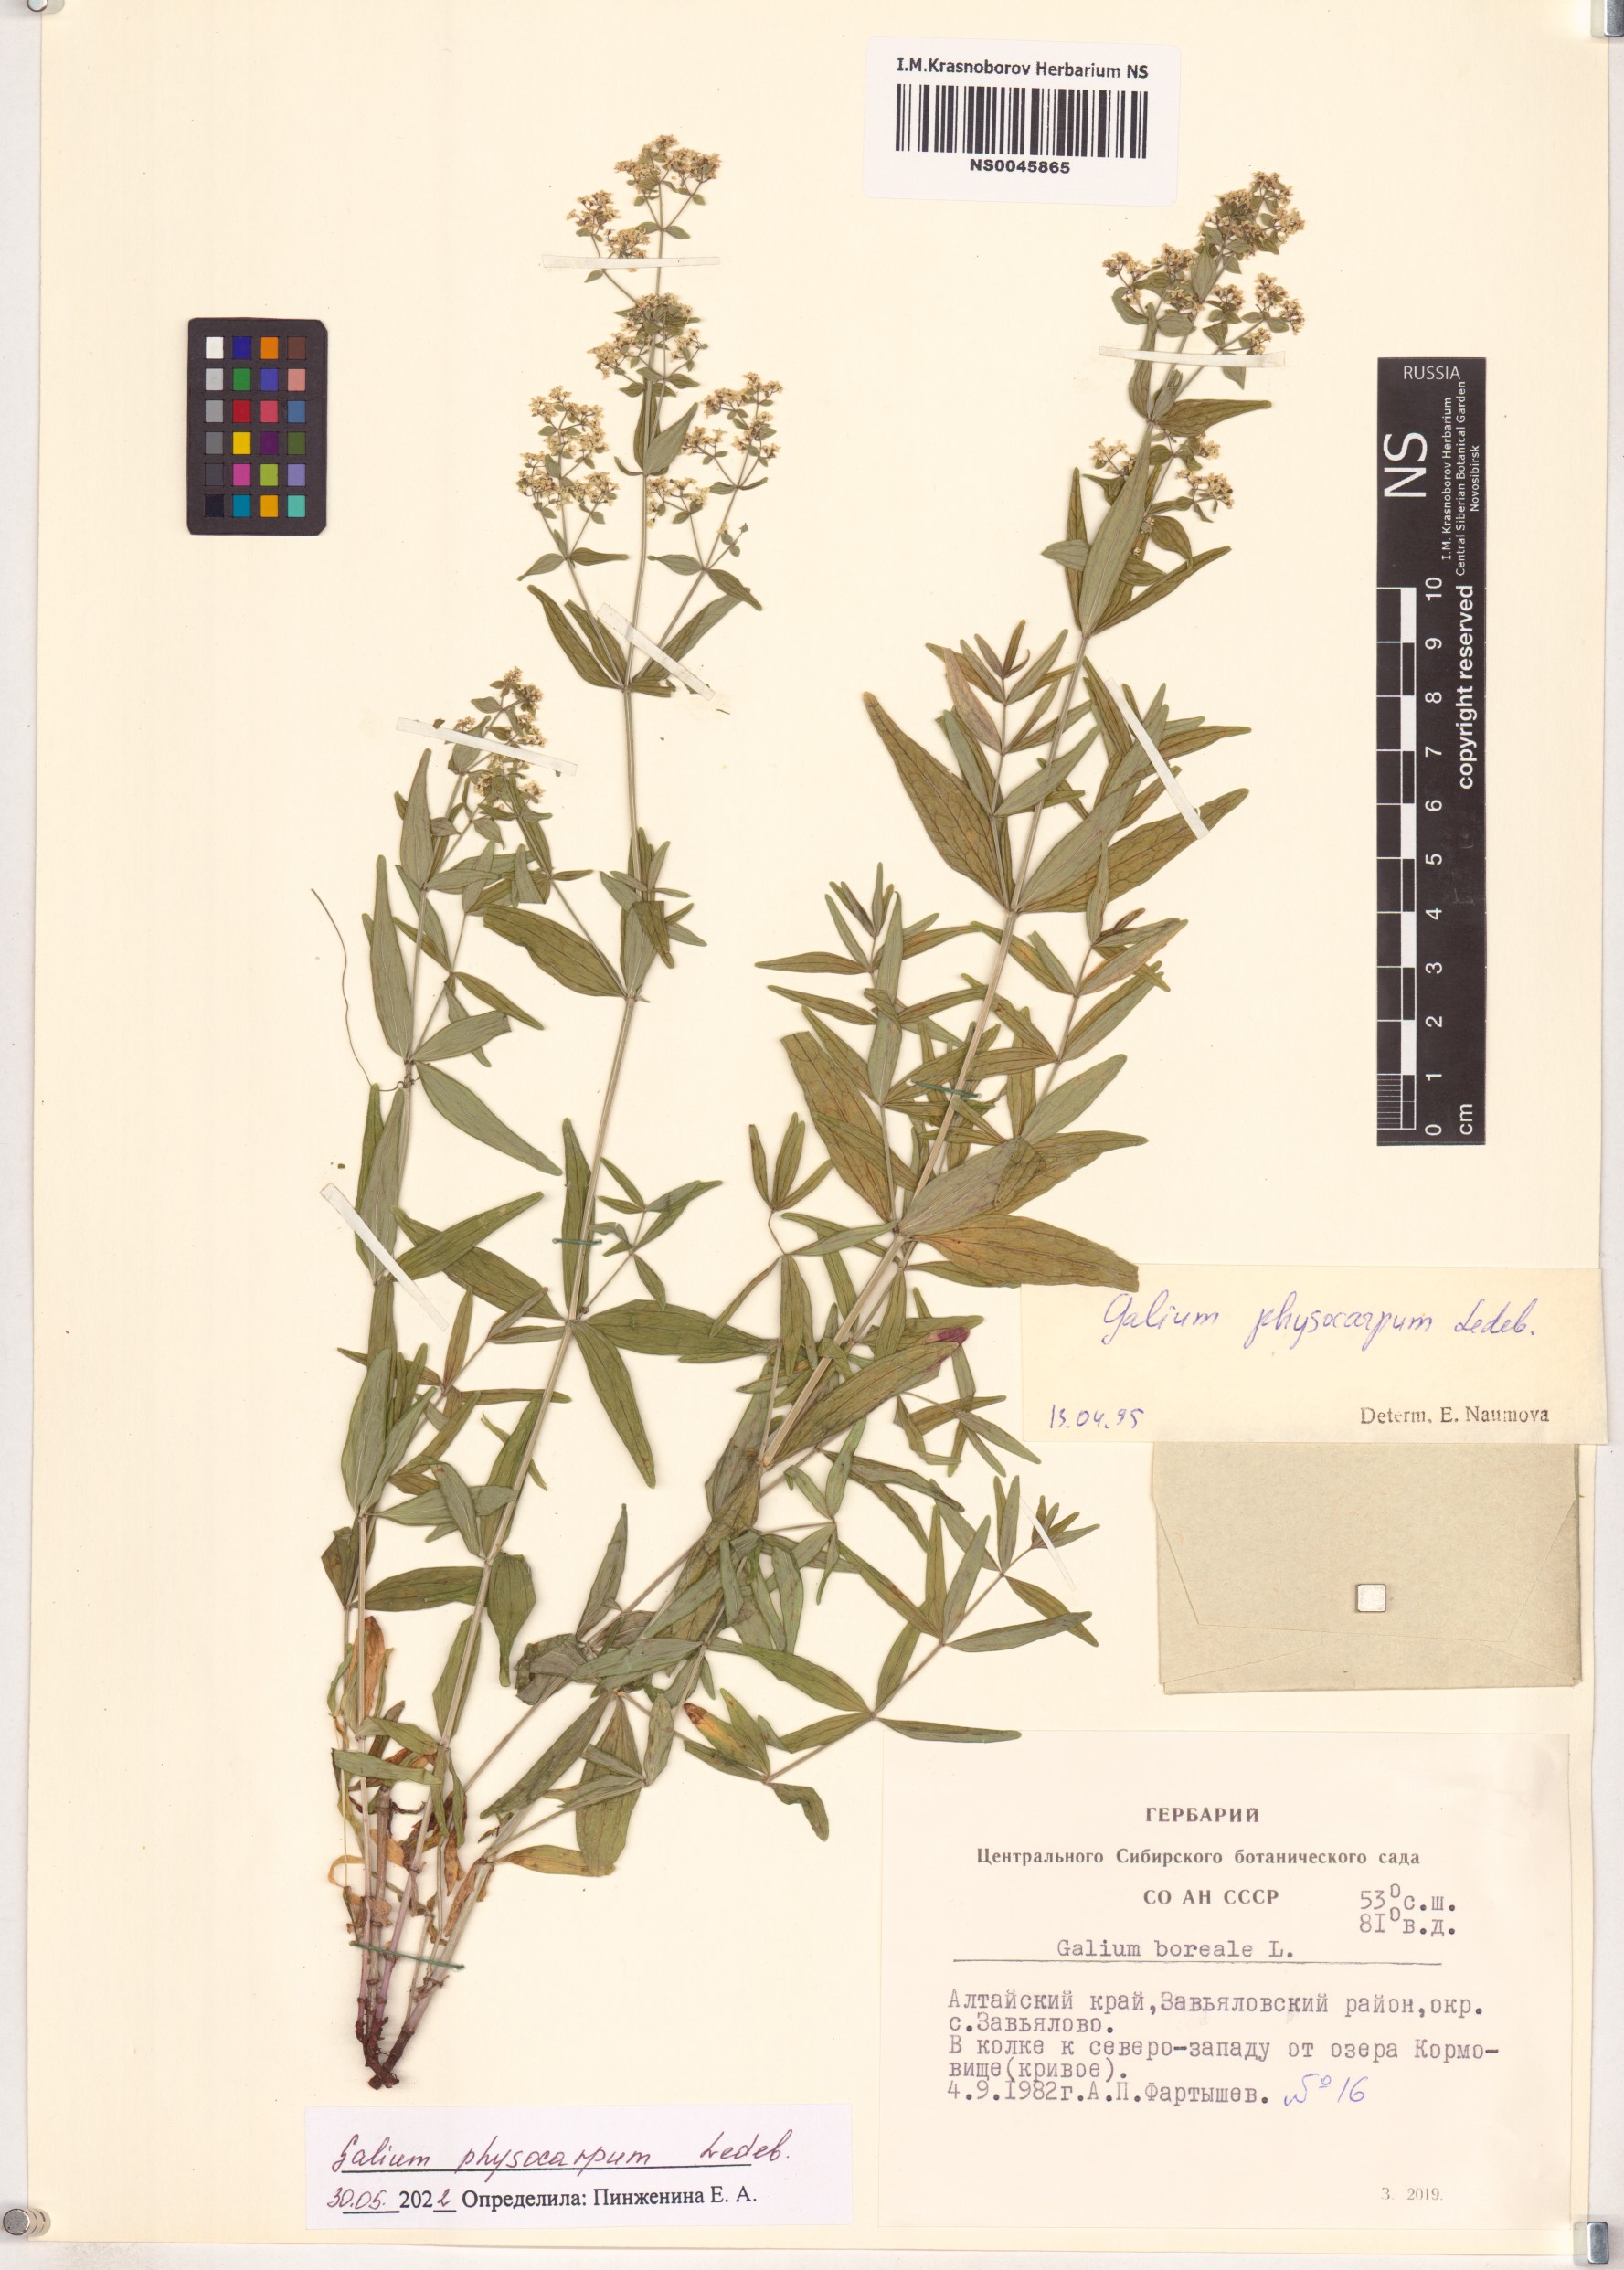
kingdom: Plantae
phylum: Tracheophyta
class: Magnoliopsida
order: Gentianales
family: Rubiaceae
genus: Galium
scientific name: Galium rubioides
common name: European bedstraw
